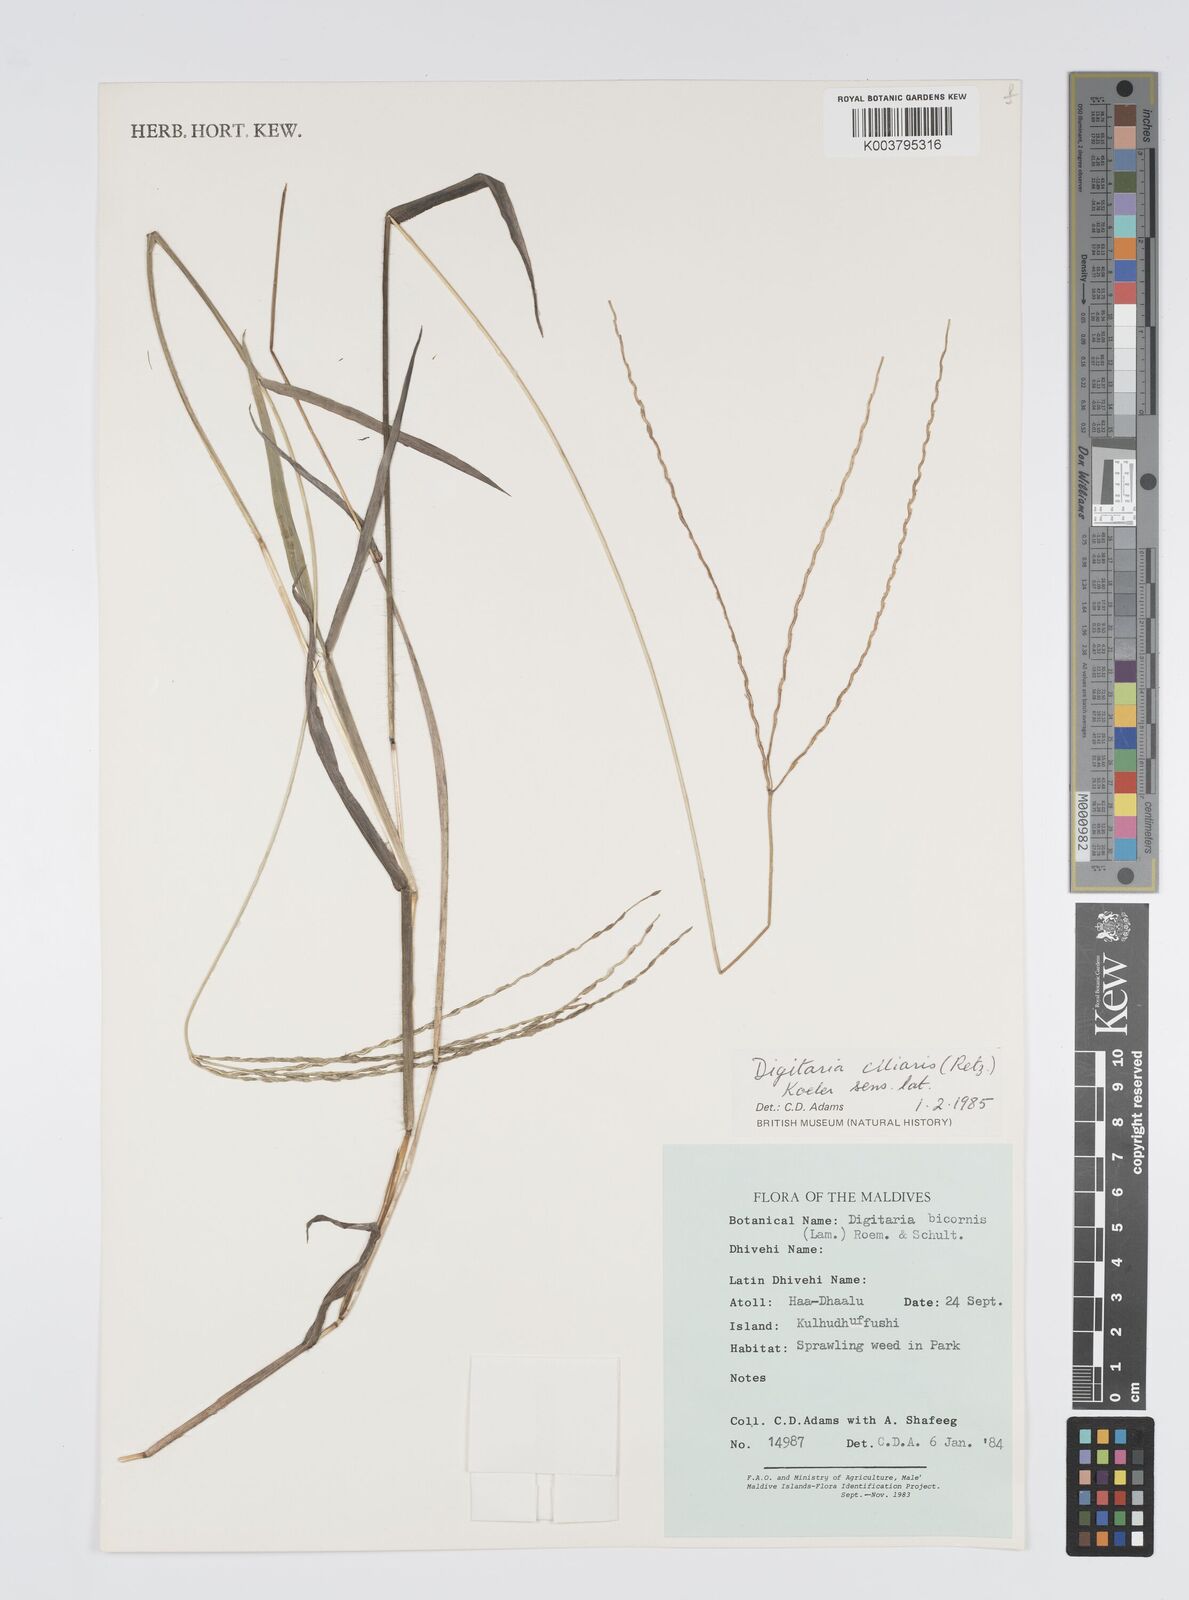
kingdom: Plantae
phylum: Tracheophyta
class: Liliopsida
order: Poales
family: Poaceae
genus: Digitaria
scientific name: Digitaria ciliaris
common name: Tropical finger-grass
